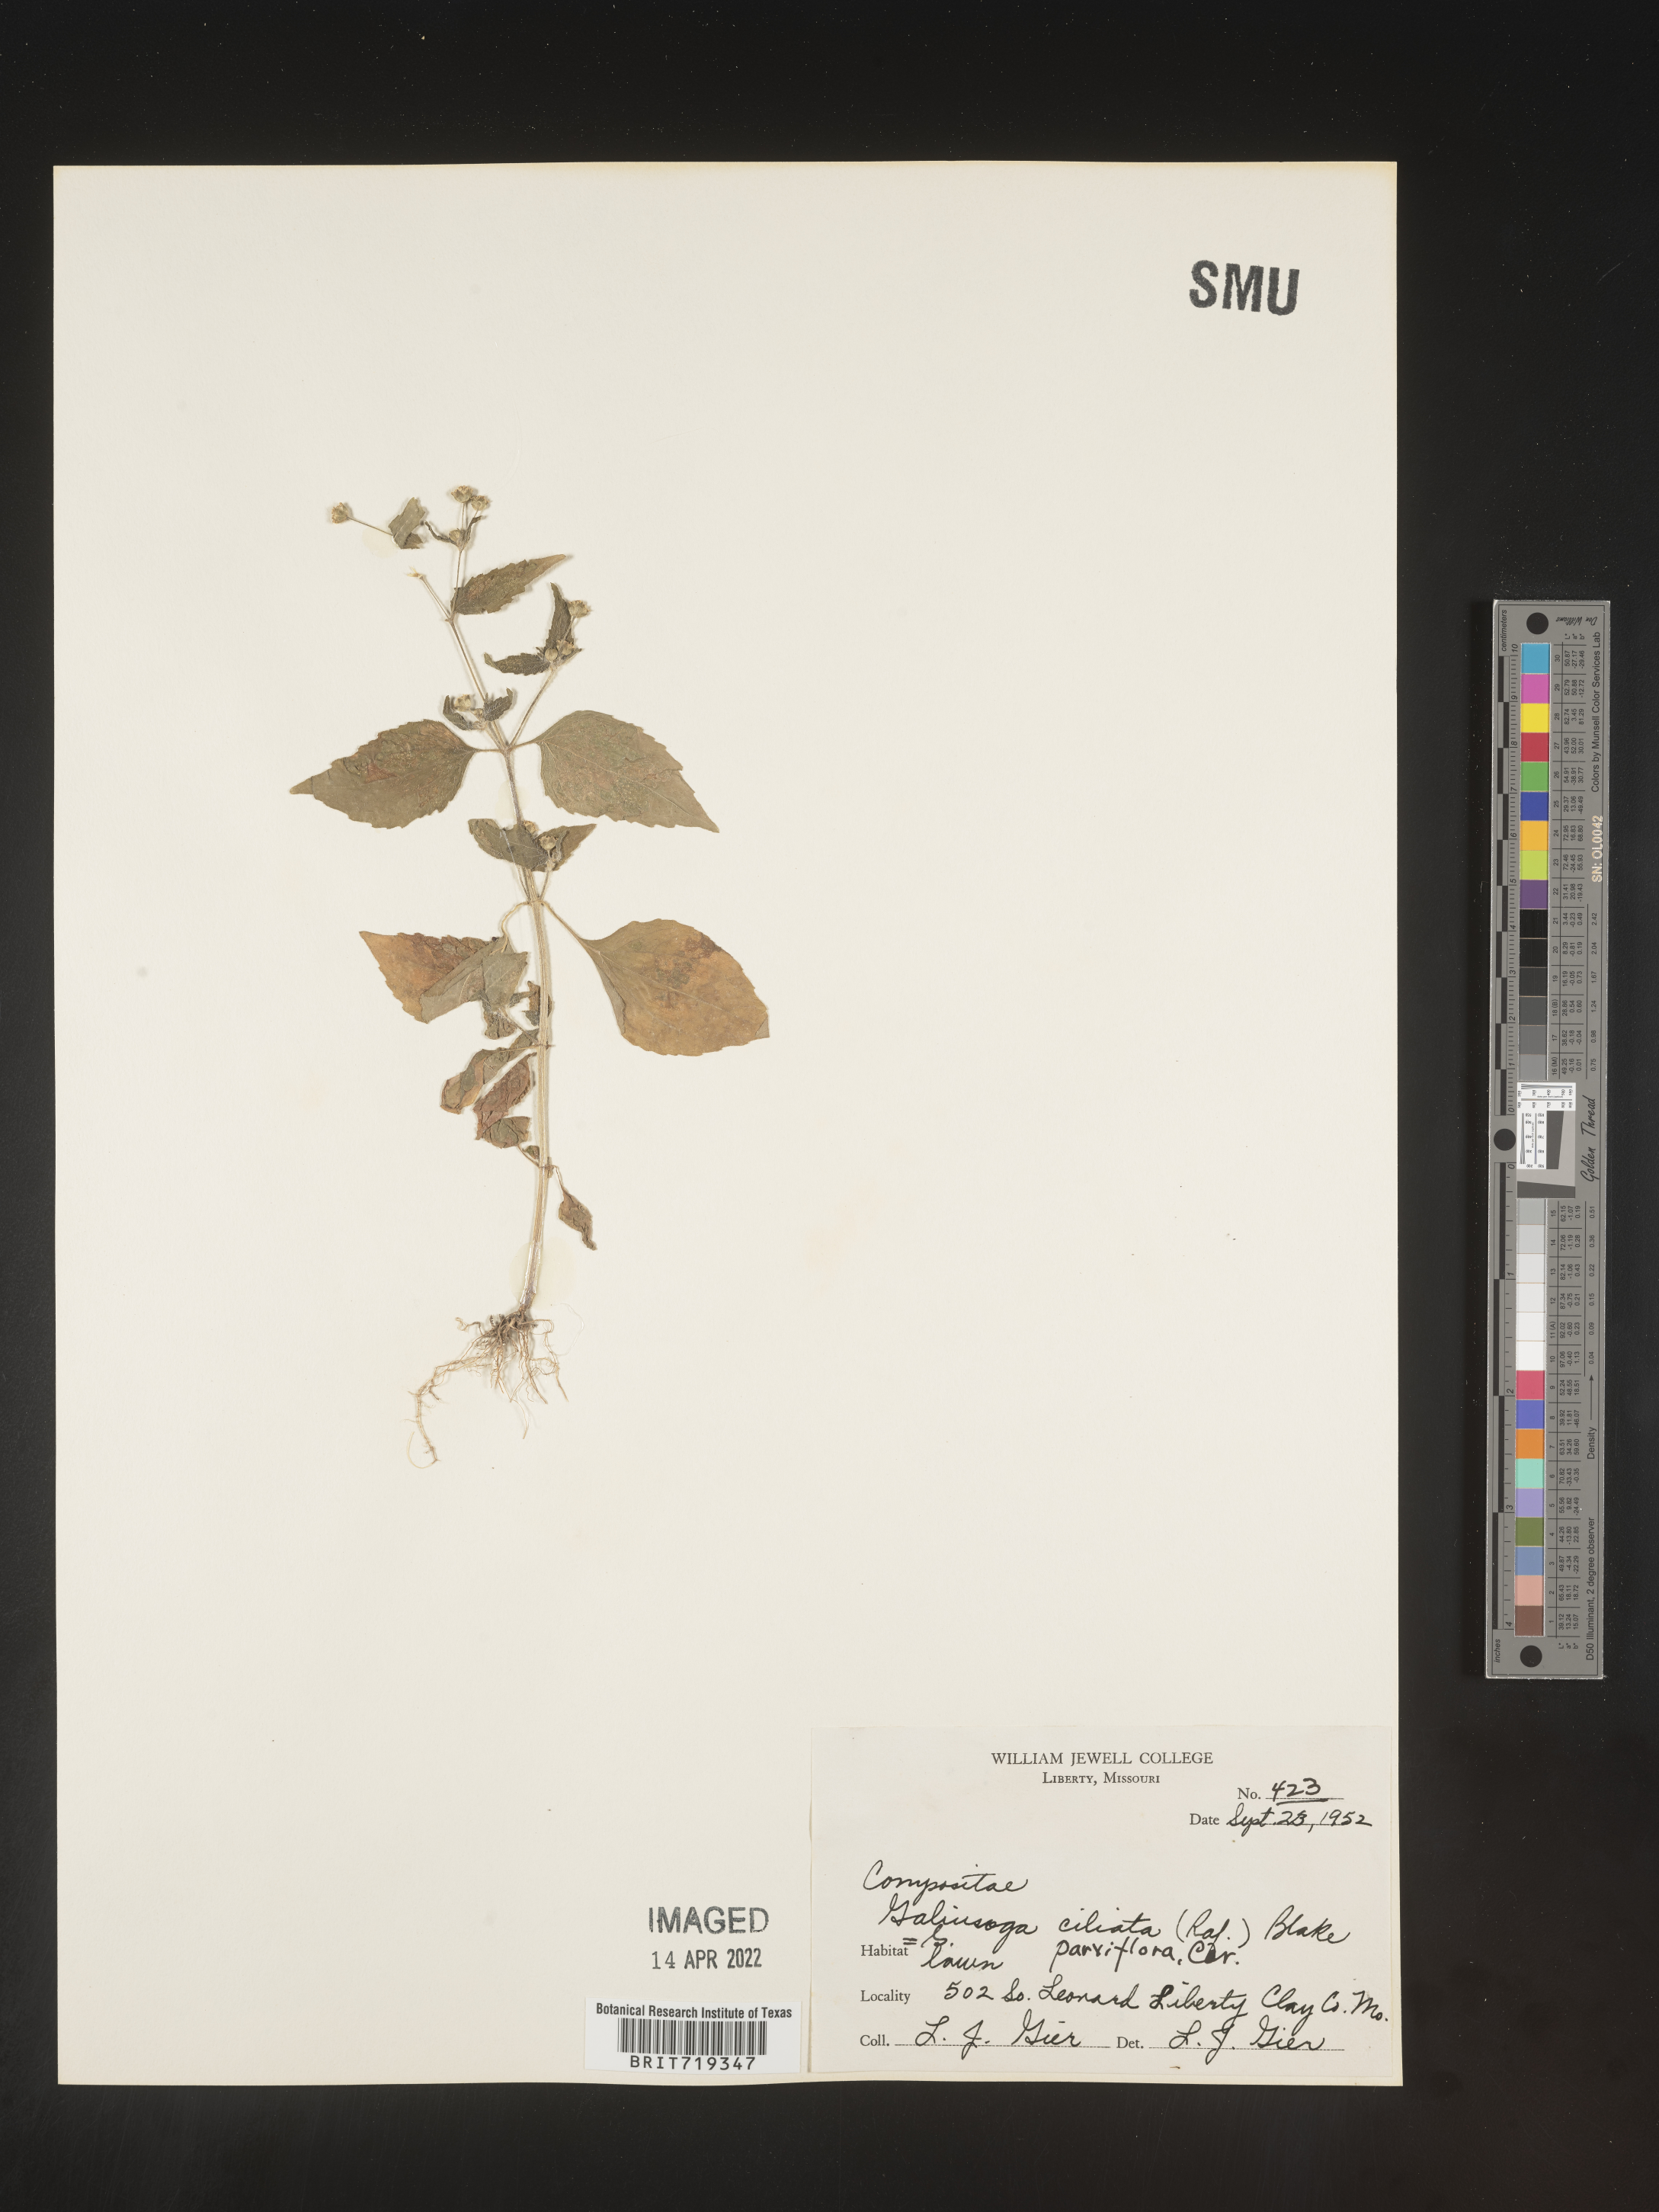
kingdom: Plantae
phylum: Tracheophyta
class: Magnoliopsida
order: Asterales
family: Asteraceae
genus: Galinsoga
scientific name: Galinsoga quadriradiata
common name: Shaggy soldier
